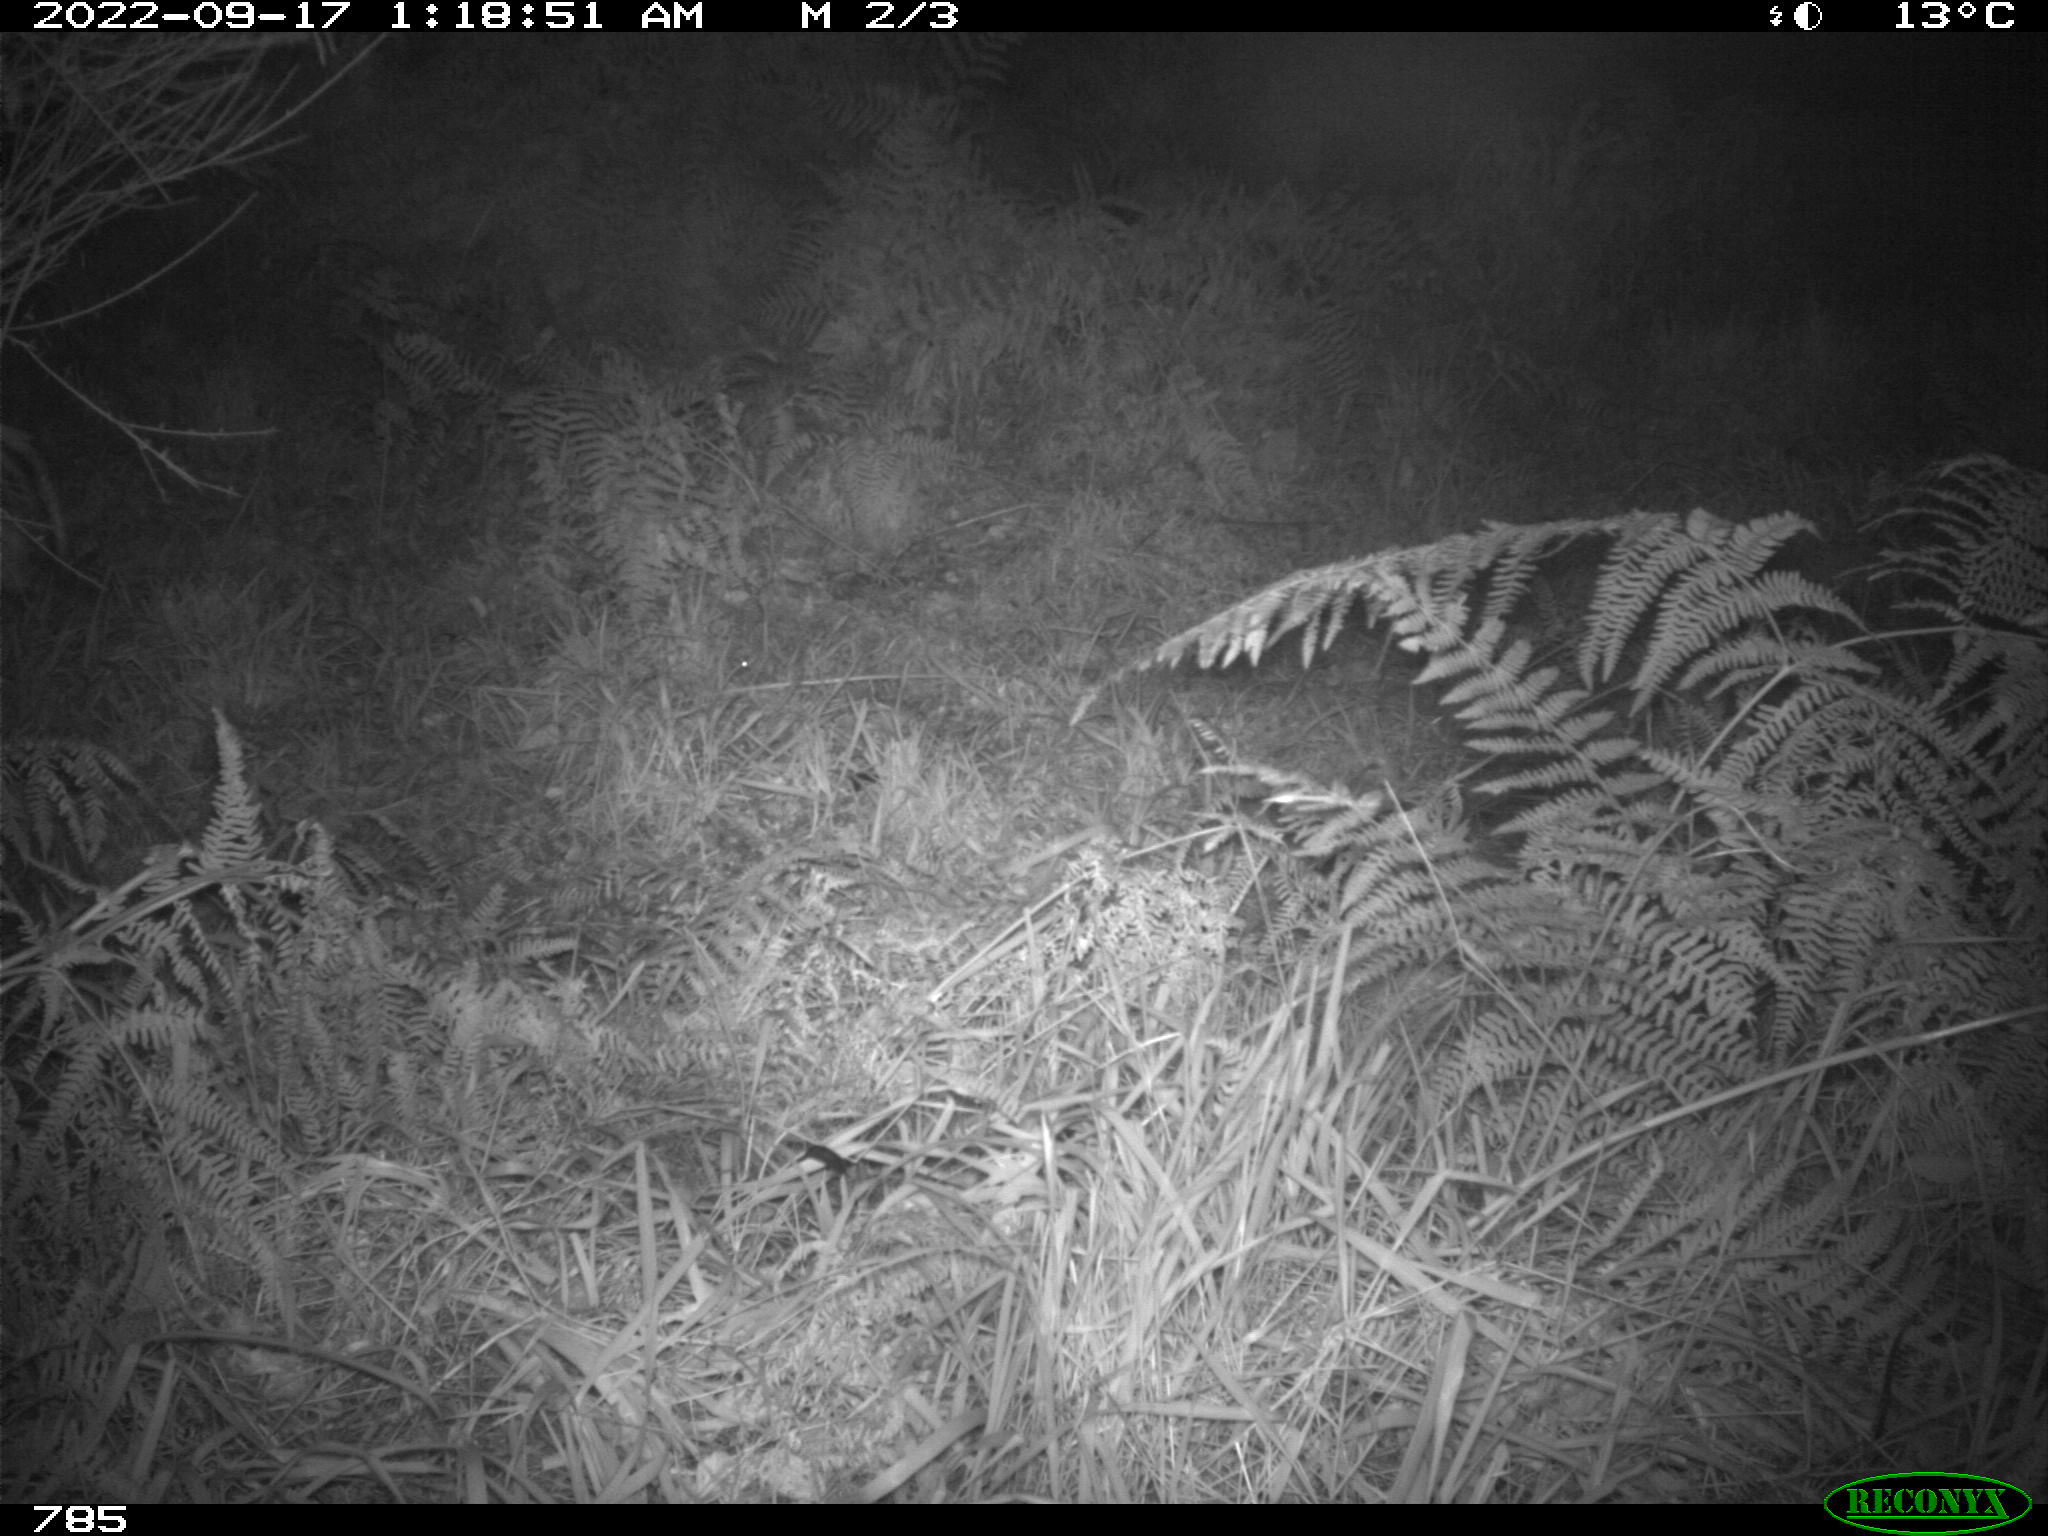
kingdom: Animalia
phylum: Chordata
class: Mammalia
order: Artiodactyla
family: Suidae
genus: Sus
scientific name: Sus scrofa
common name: Wild boar
